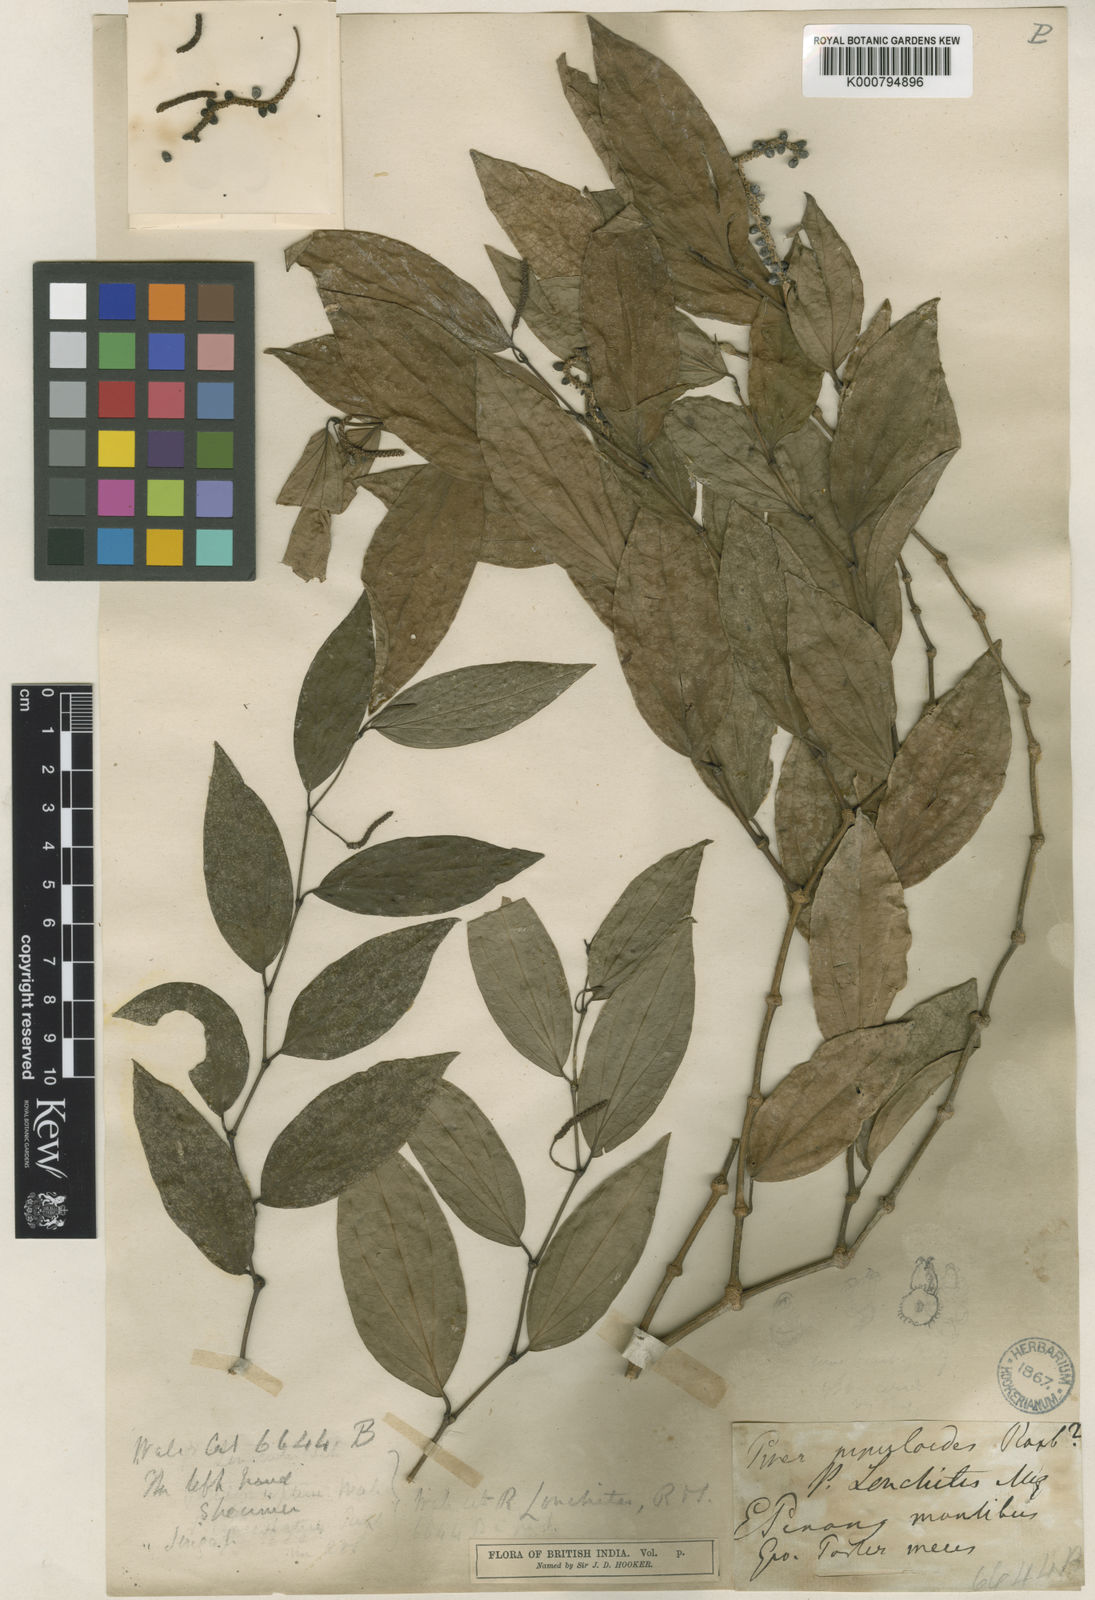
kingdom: Plantae
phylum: Tracheophyta
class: Magnoliopsida
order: Piperales
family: Piperaceae
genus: Piper
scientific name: Piper
